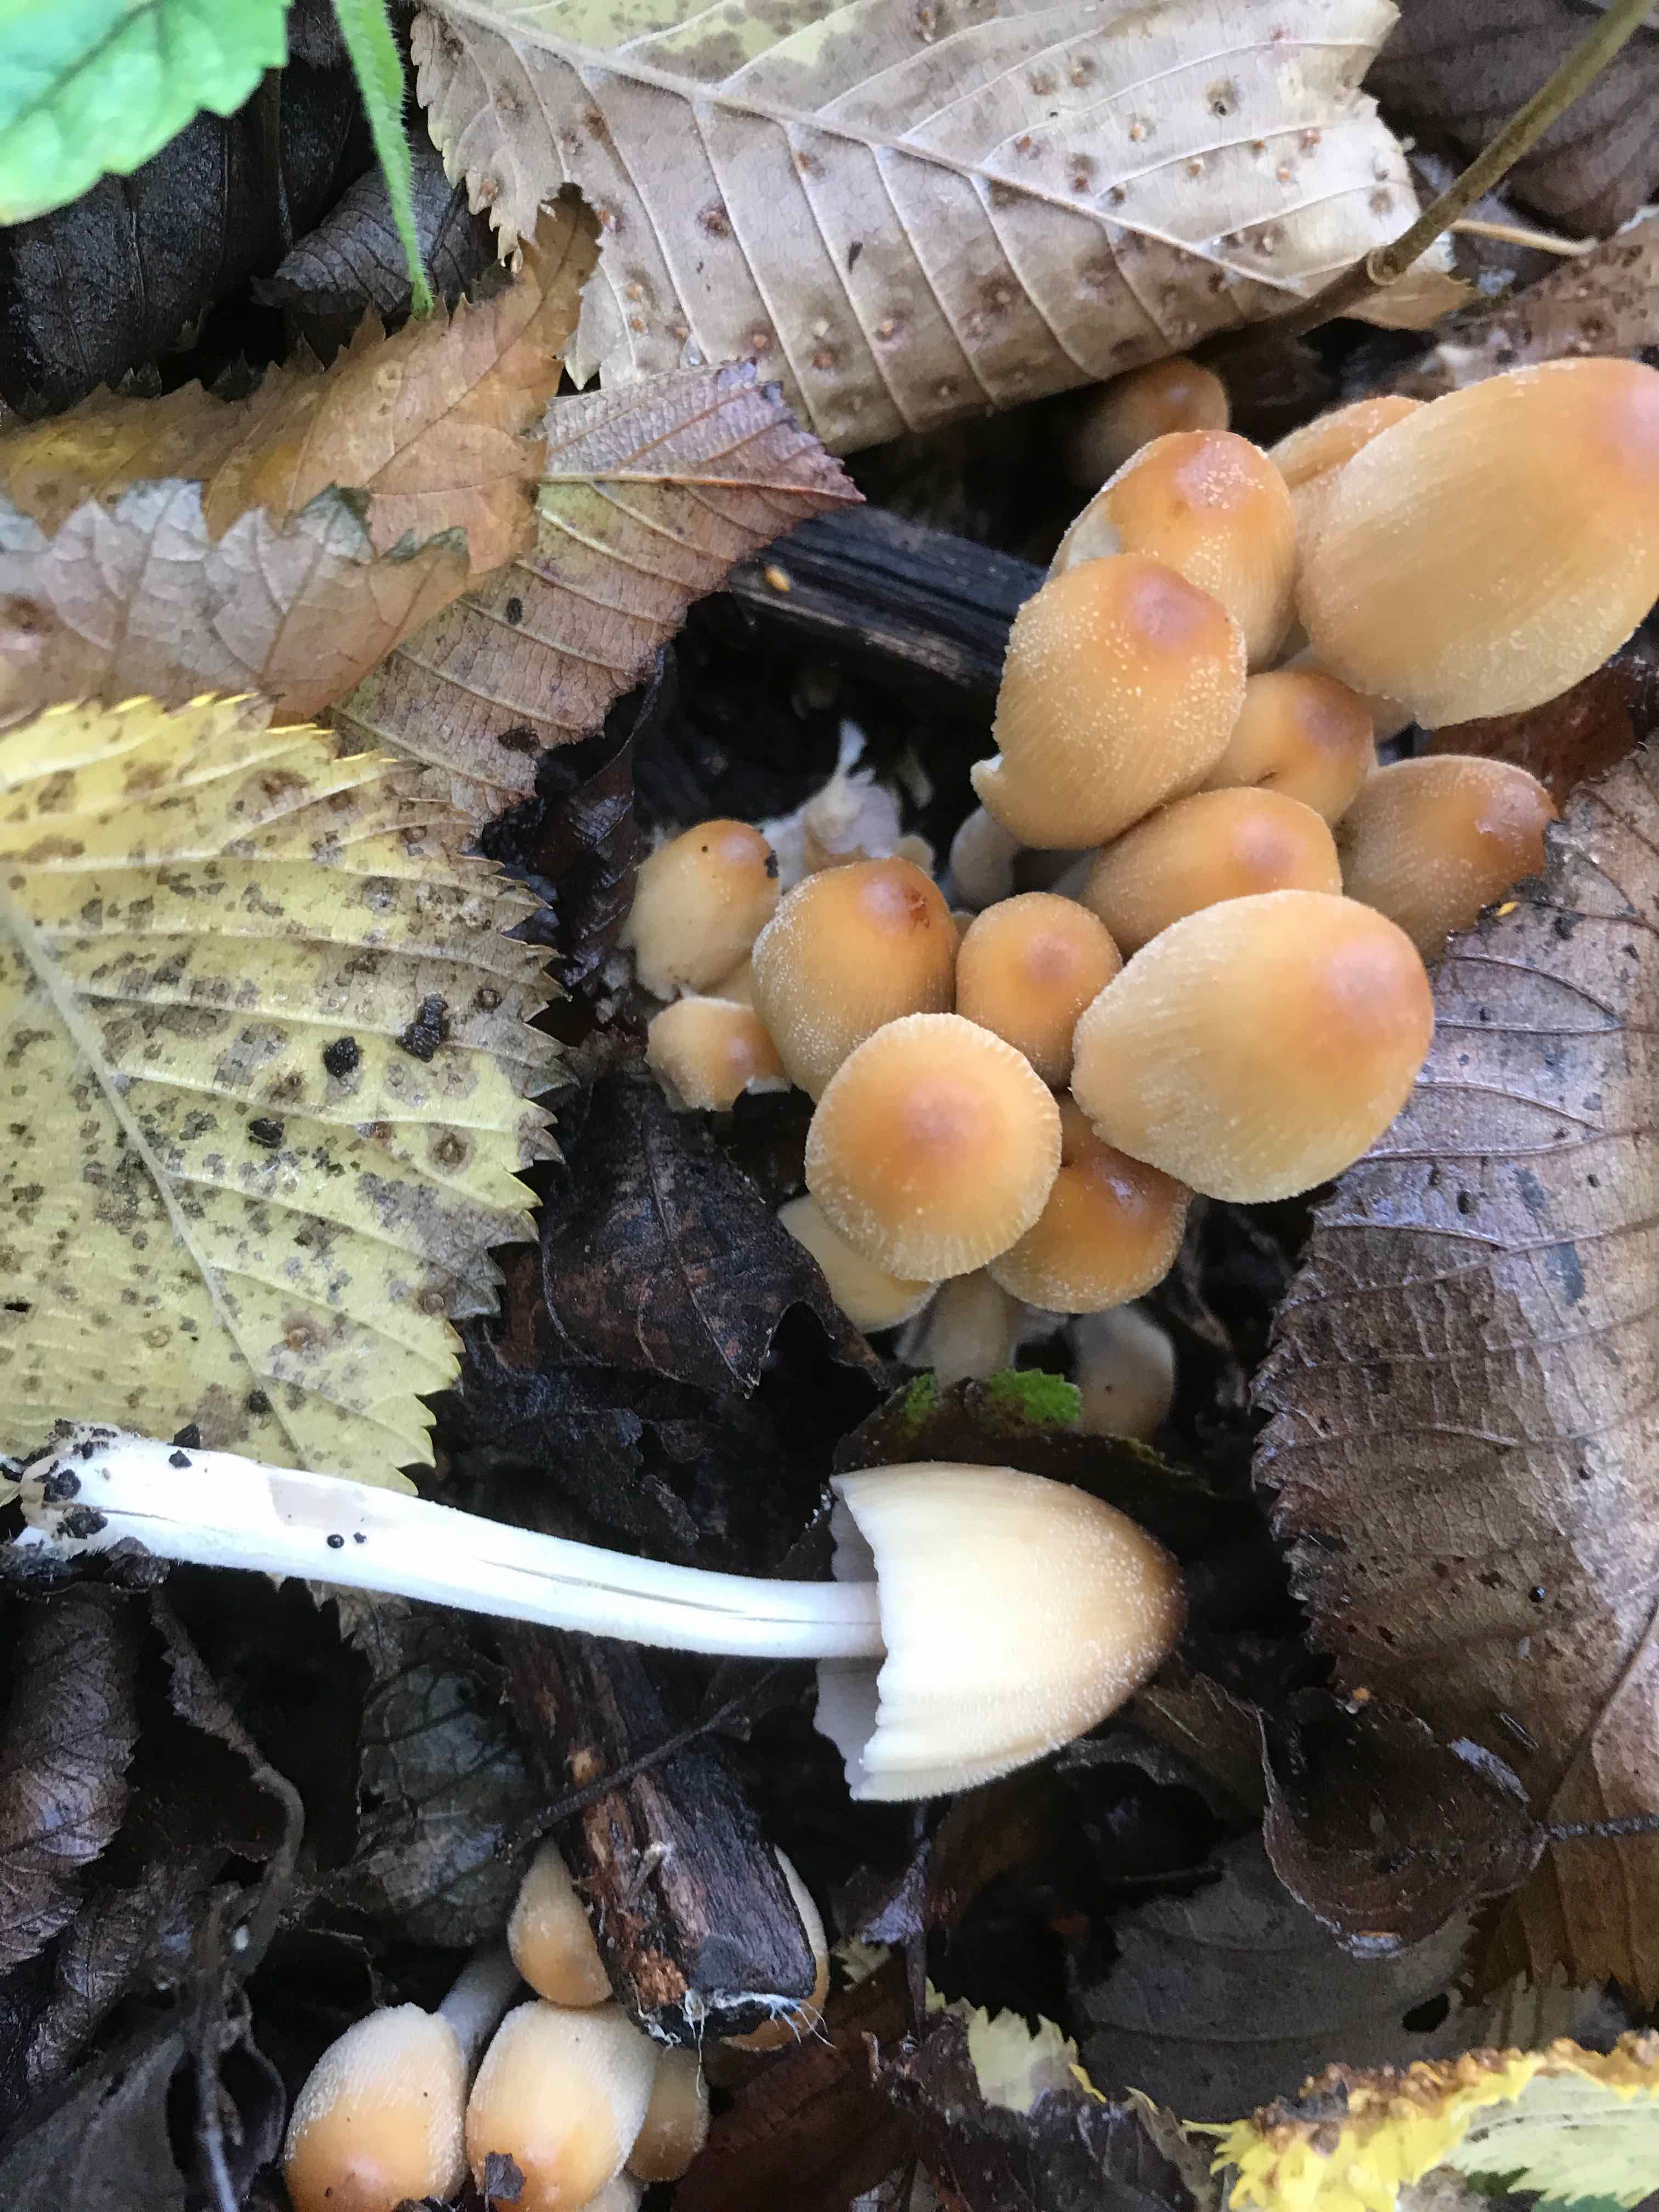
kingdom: Fungi
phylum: Basidiomycota
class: Agaricomycetes
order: Agaricales
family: Psathyrellaceae
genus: Coprinellus
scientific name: Coprinellus micaceus
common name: glimmer-blækhat
